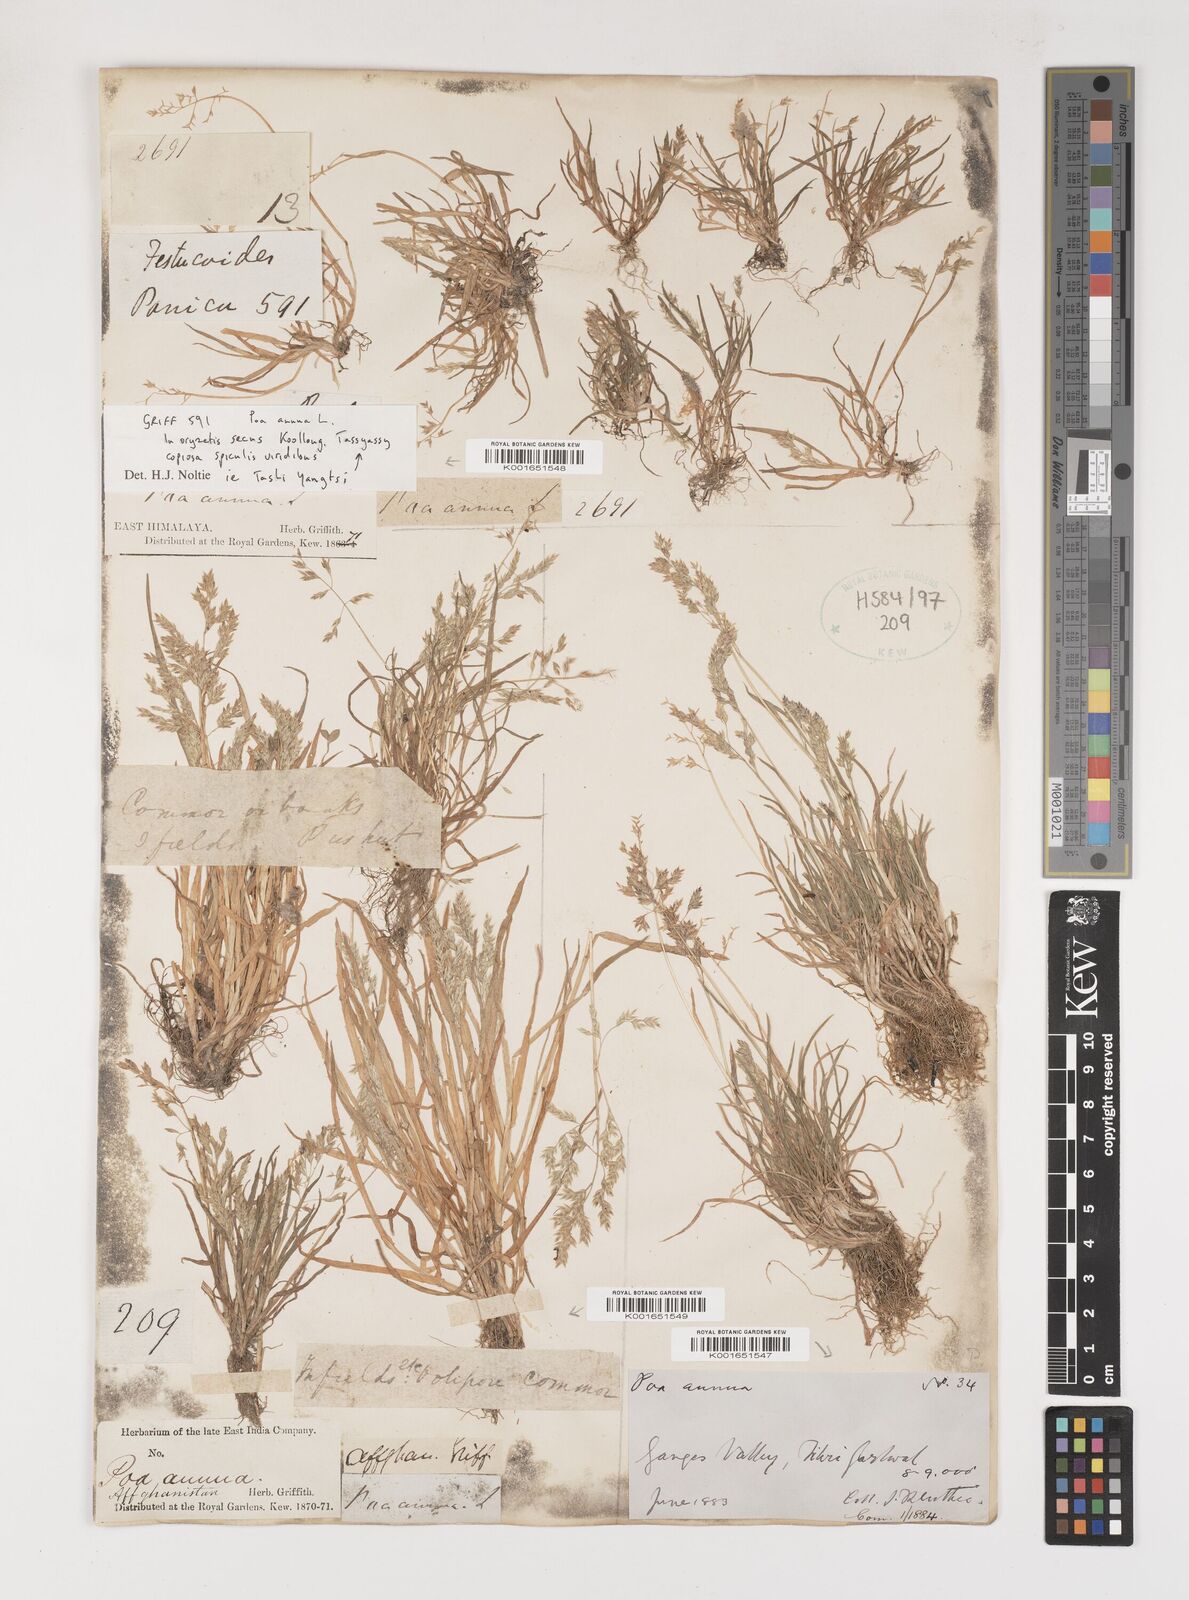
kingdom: Plantae
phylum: Tracheophyta
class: Liliopsida
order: Poales
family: Poaceae
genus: Poa
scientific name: Poa annua
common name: Annual bluegrass
